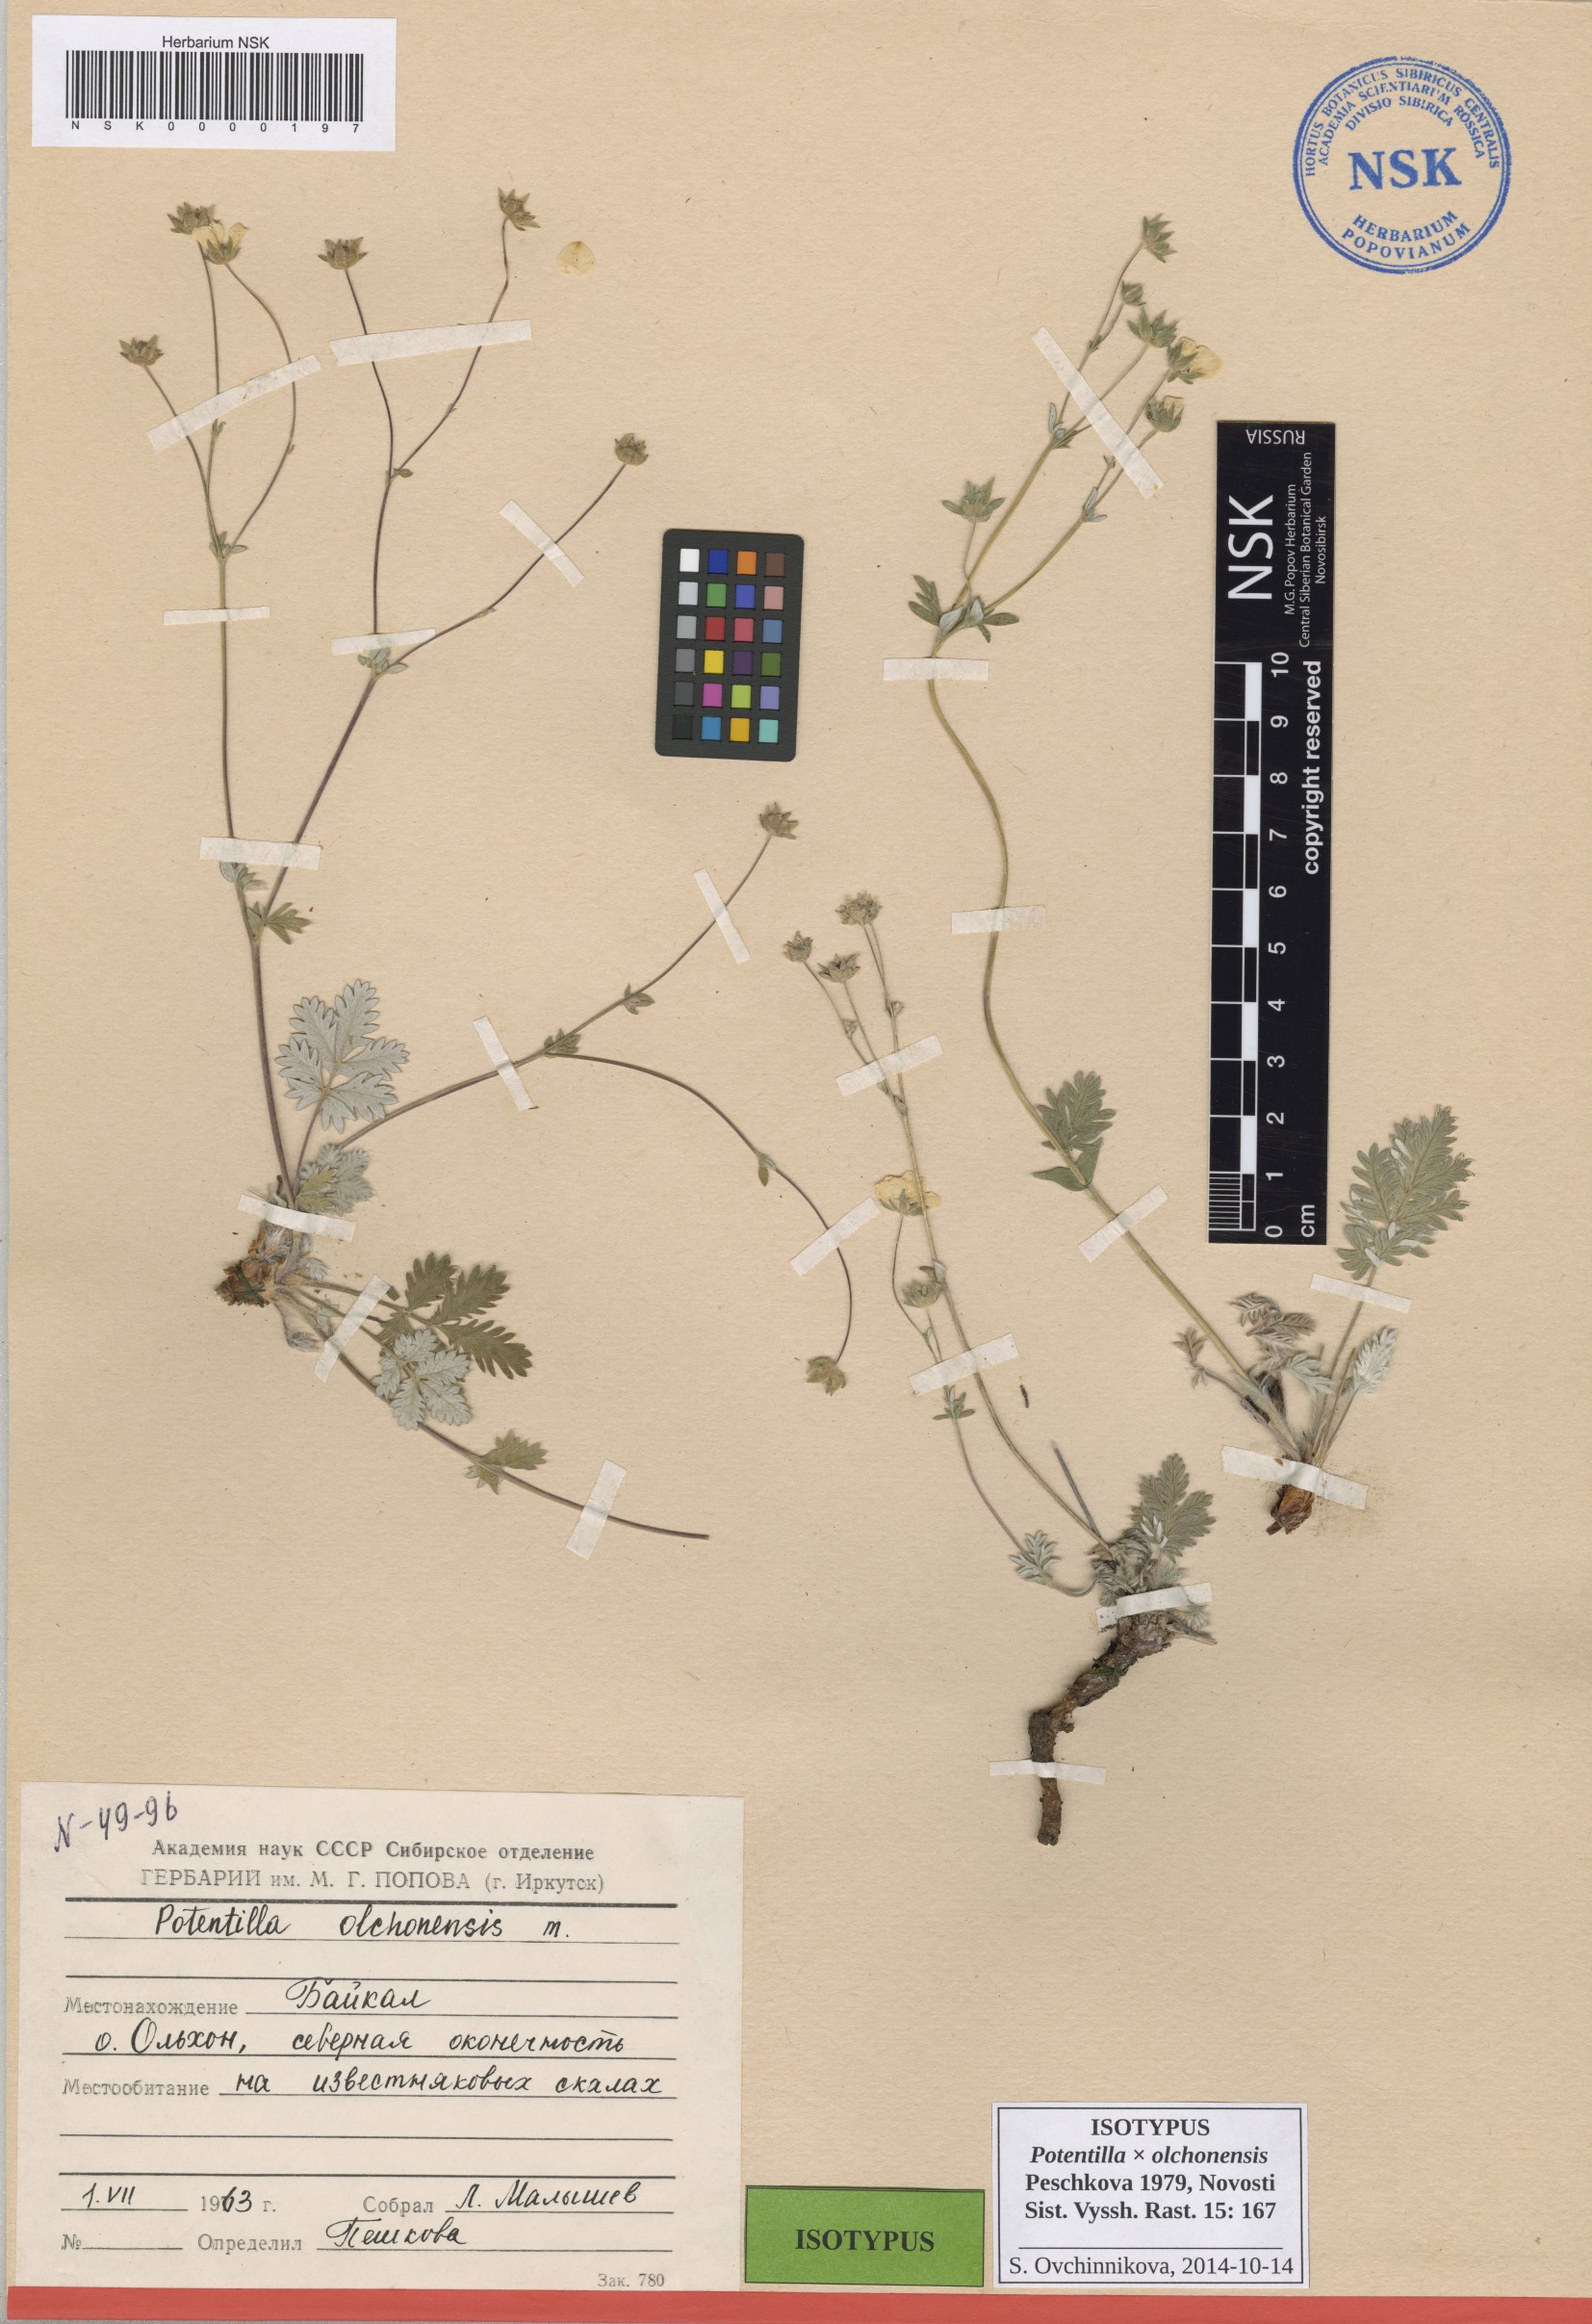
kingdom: Plantae
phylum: Tracheophyta
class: Magnoliopsida
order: Rosales
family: Rosaceae
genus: Potentilla
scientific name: Potentilla olchonensis
